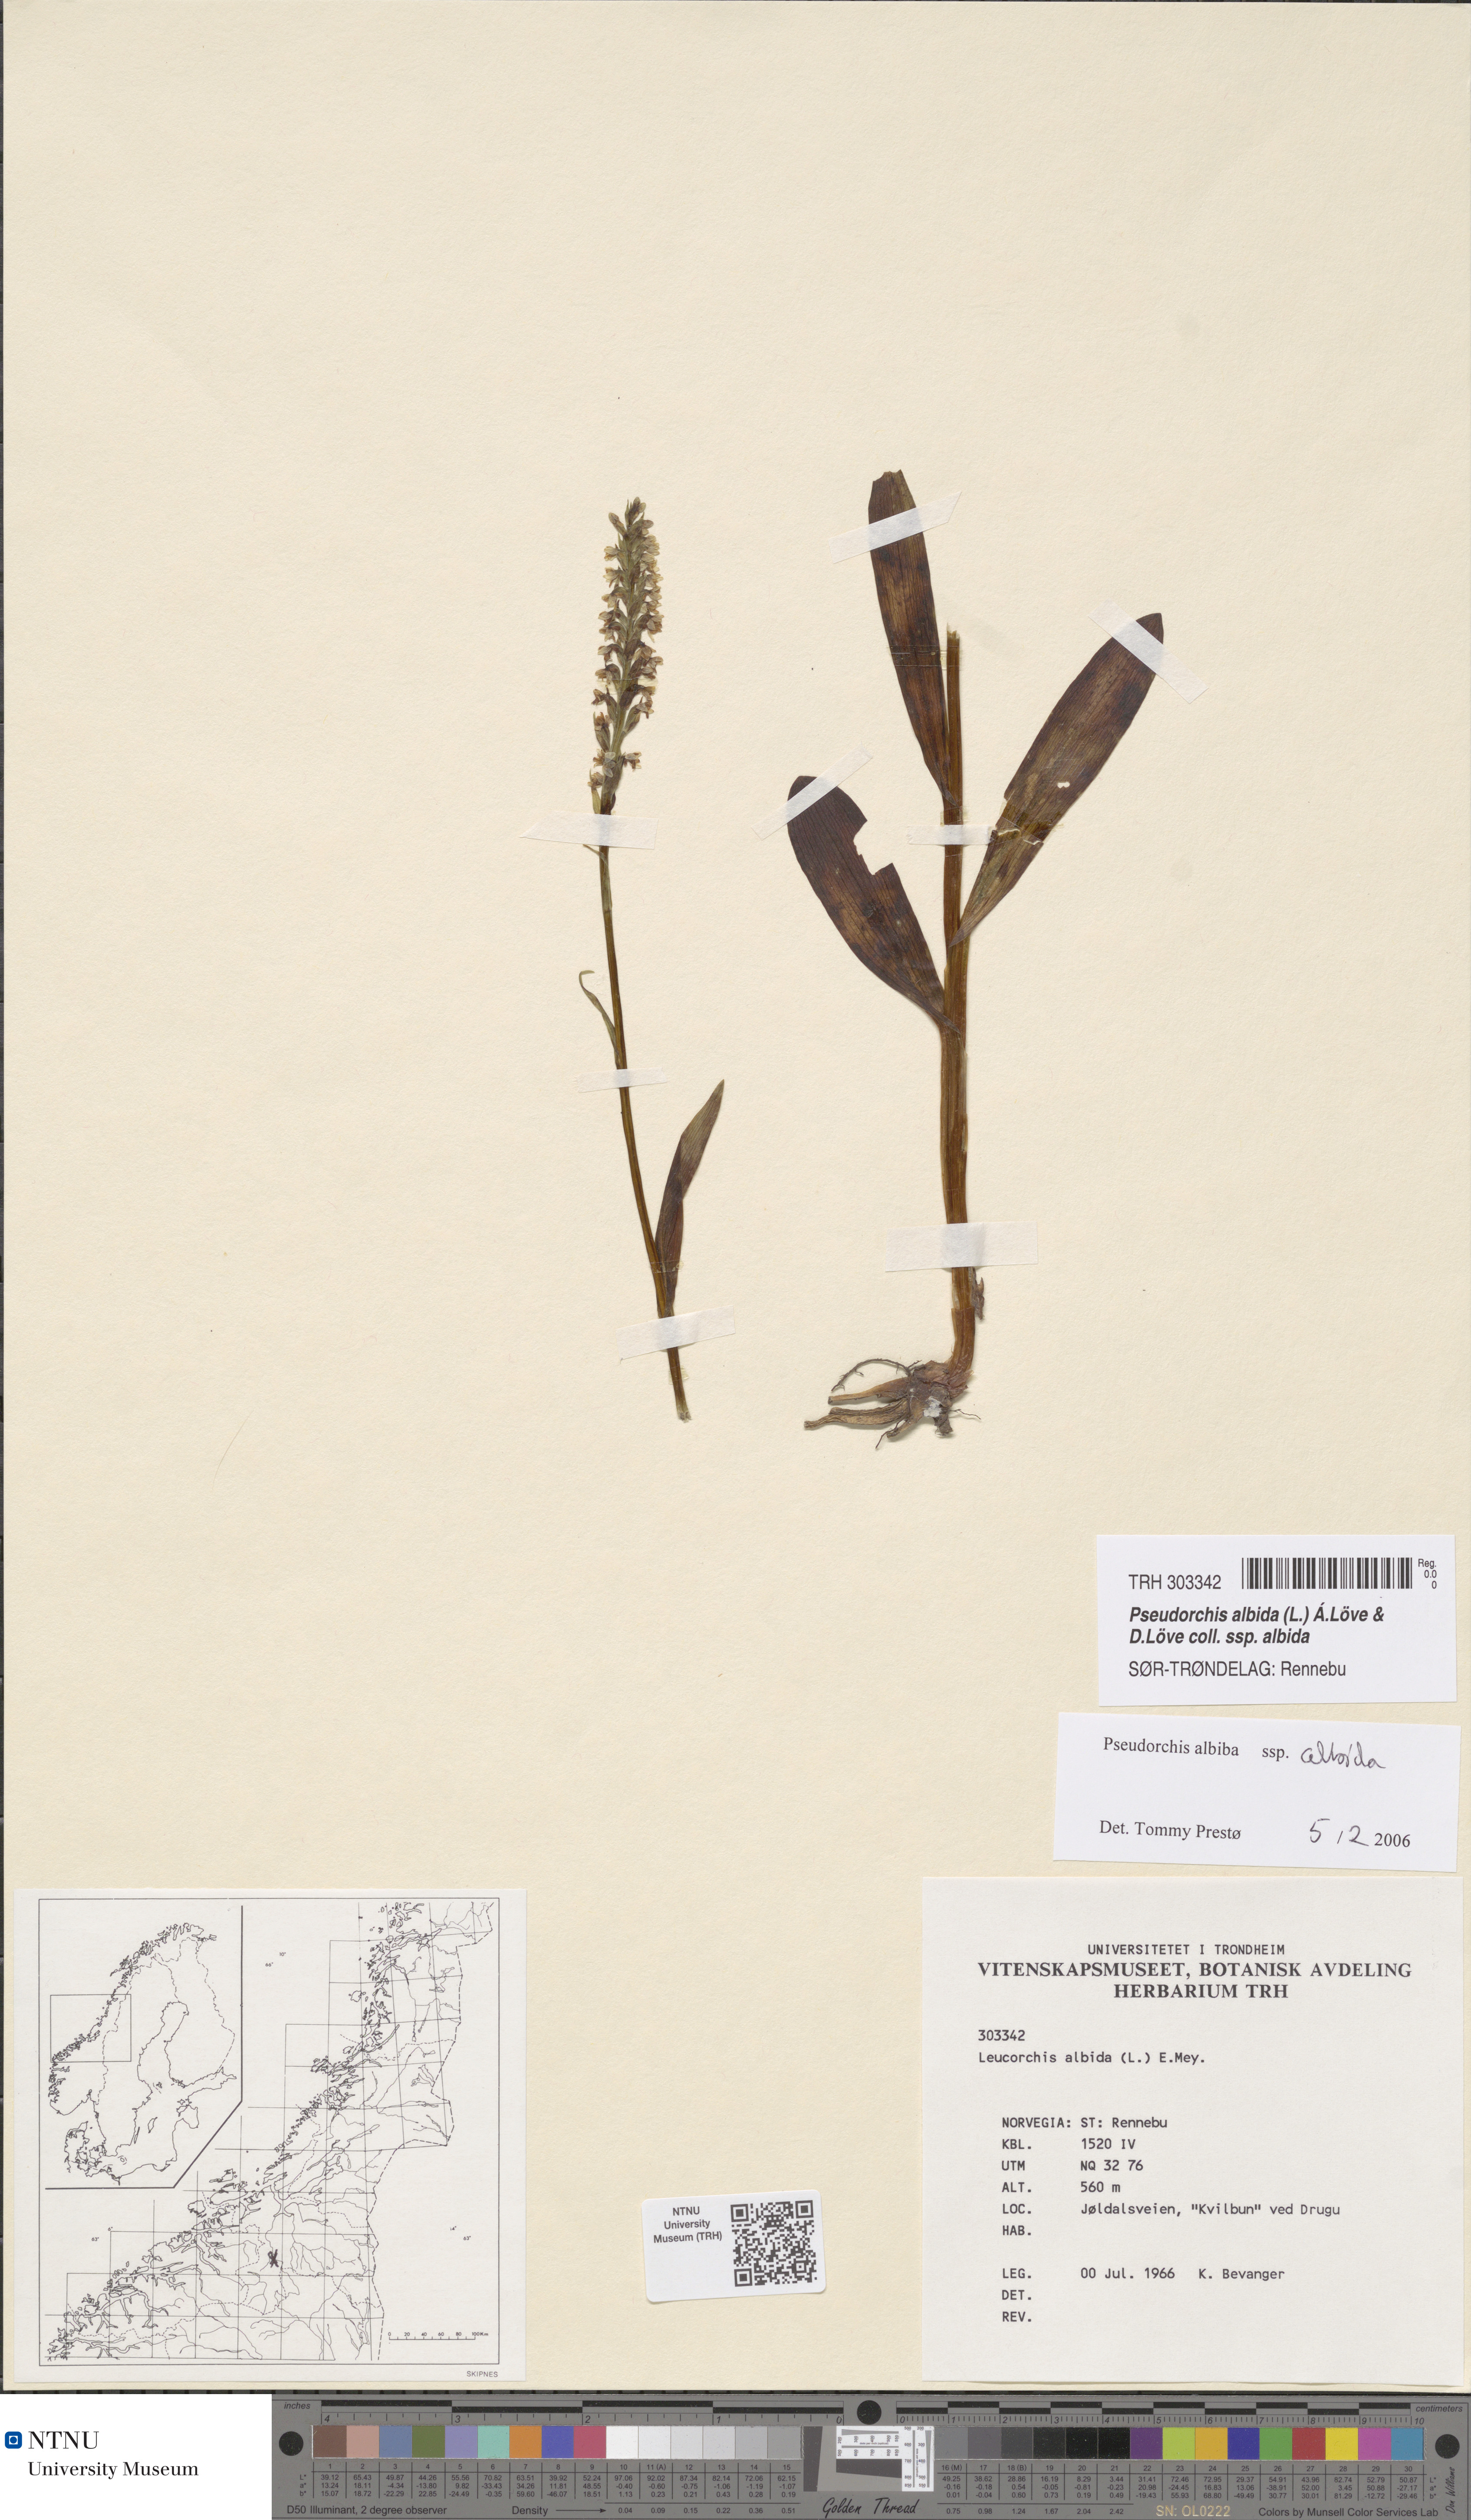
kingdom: Plantae
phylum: Tracheophyta
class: Liliopsida
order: Asparagales
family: Orchidaceae
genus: Pseudorchis
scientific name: Pseudorchis albida
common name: Small-white orchid
